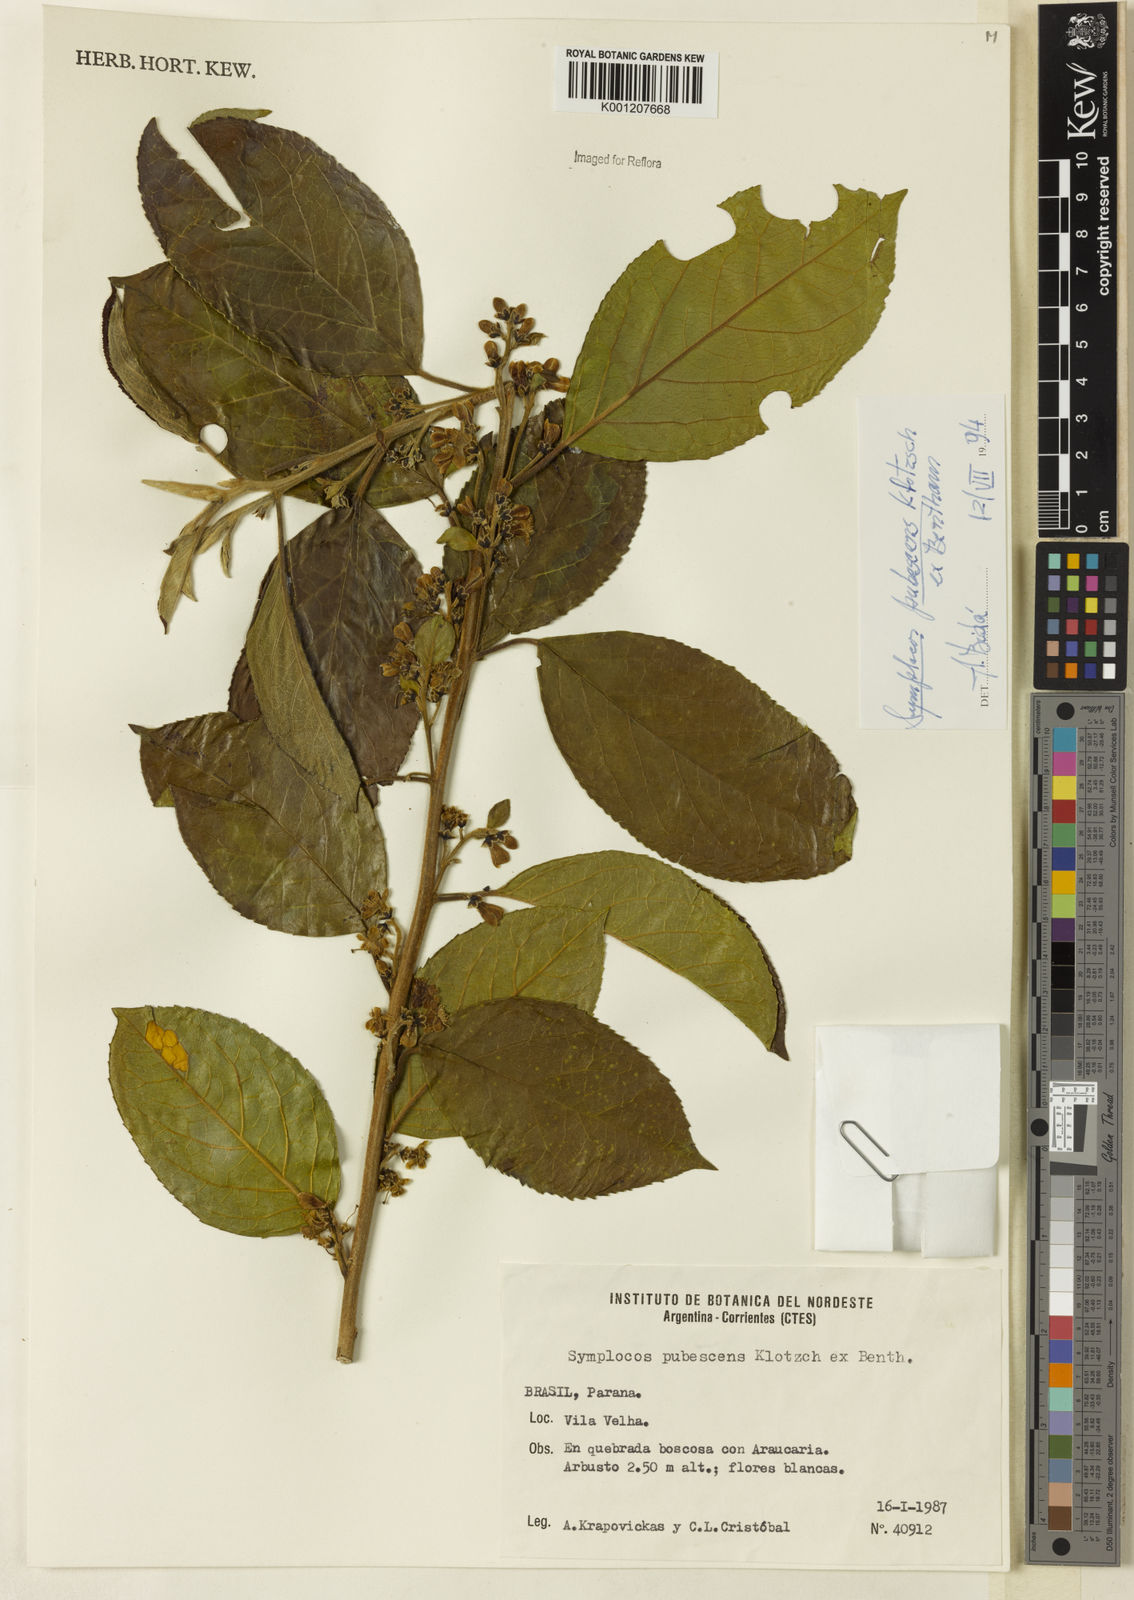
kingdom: Plantae
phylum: Tracheophyta
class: Magnoliopsida
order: Ericales
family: Symplocaceae
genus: Symplocos
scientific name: Symplocos pubescens
